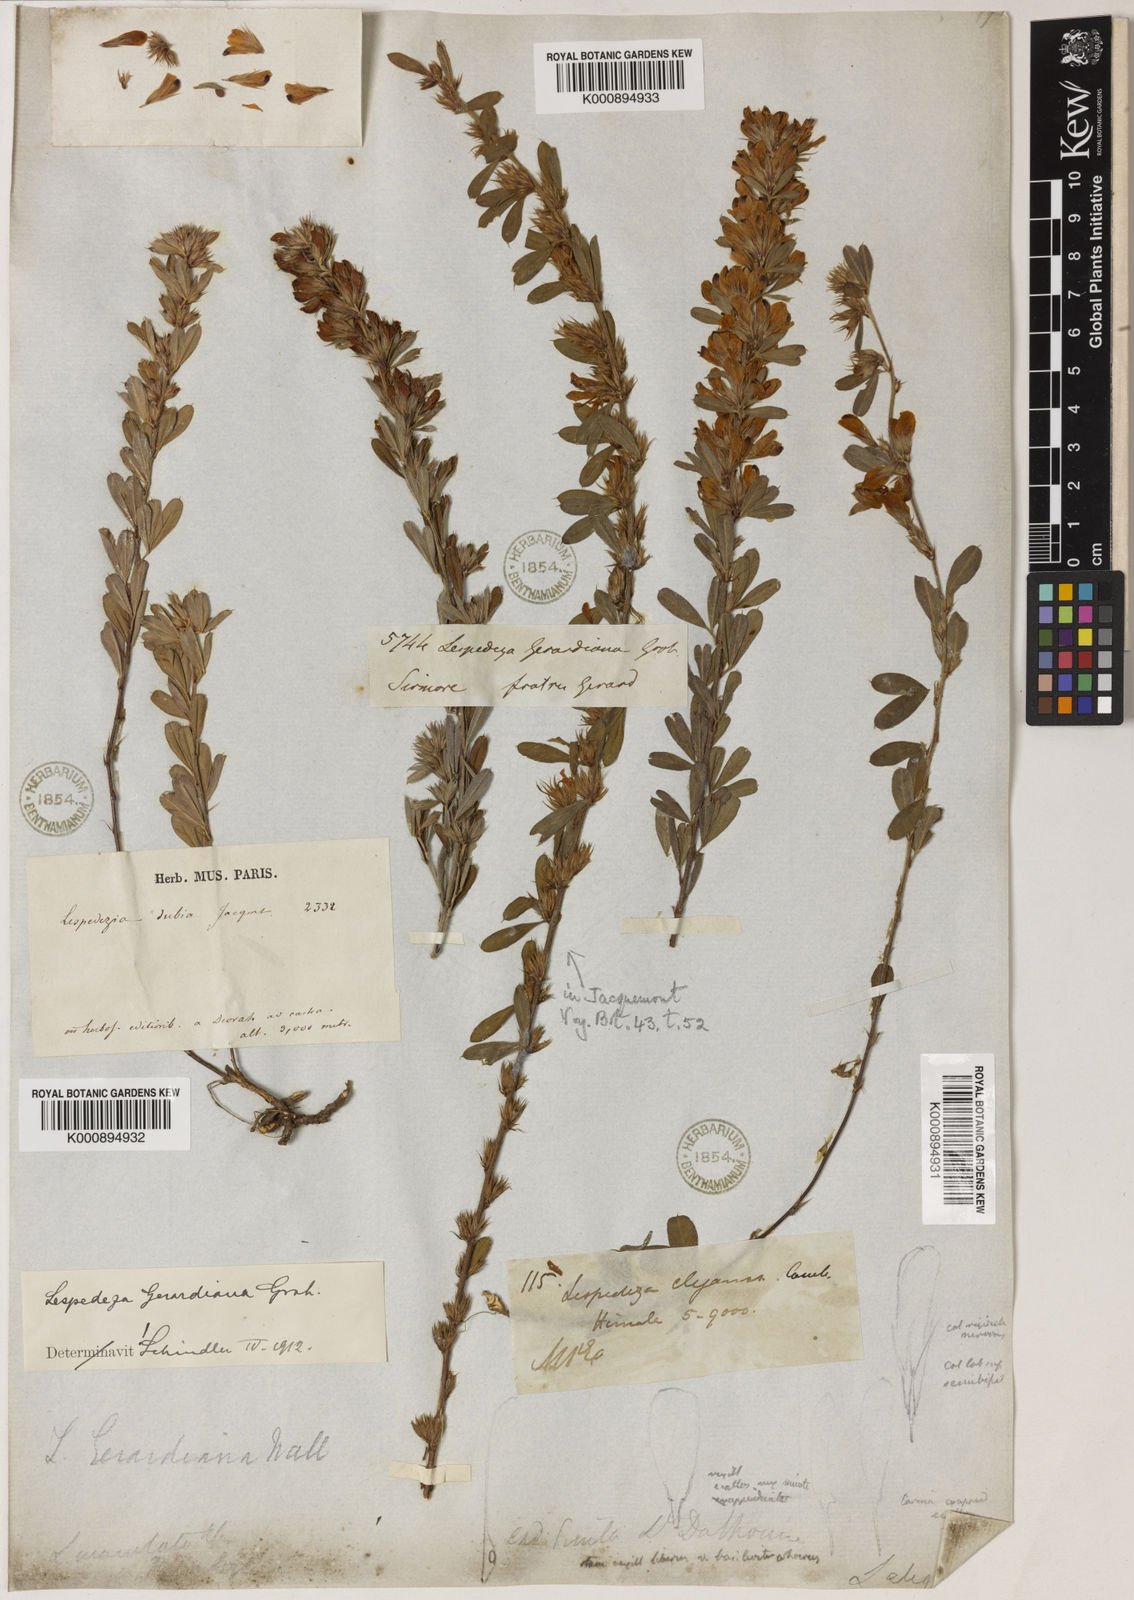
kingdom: Plantae
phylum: Tracheophyta
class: Magnoliopsida
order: Fabales
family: Fabaceae
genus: Lespedeza
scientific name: Lespedeza
